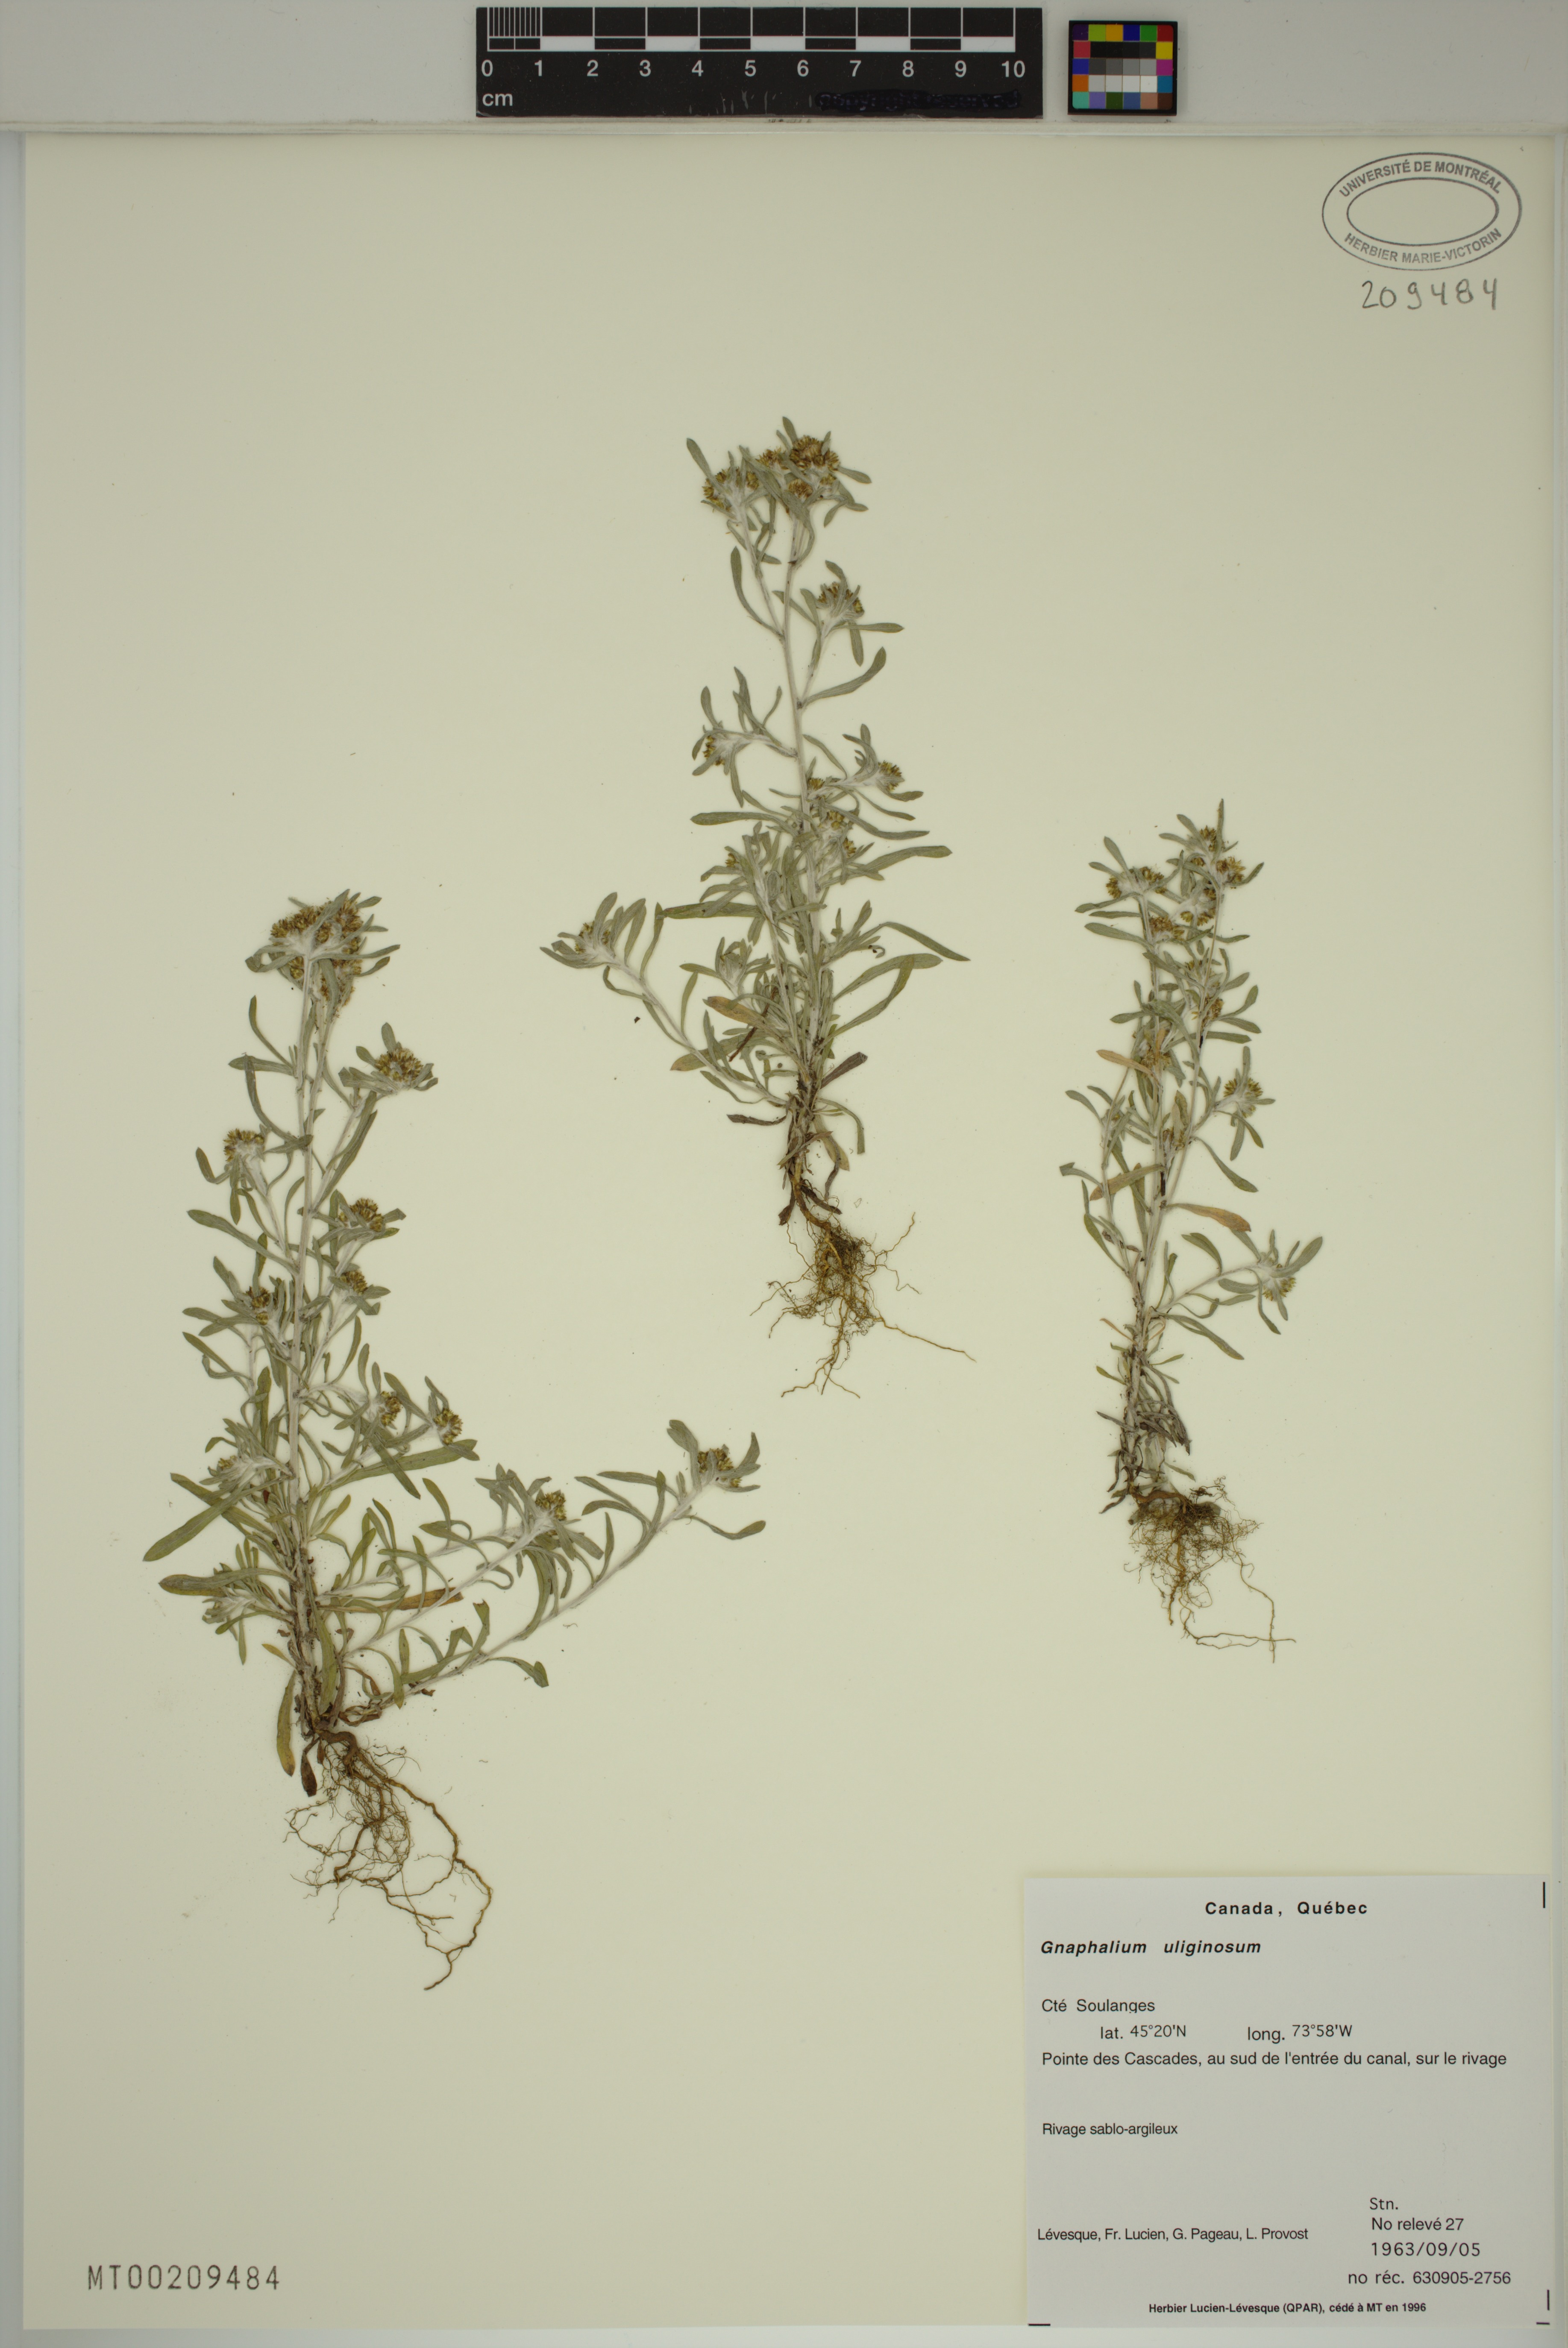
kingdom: Plantae
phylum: Tracheophyta
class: Magnoliopsida
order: Asterales
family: Asteraceae
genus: Gnaphalium
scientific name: Gnaphalium uliginosum
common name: Marsh cudweed
